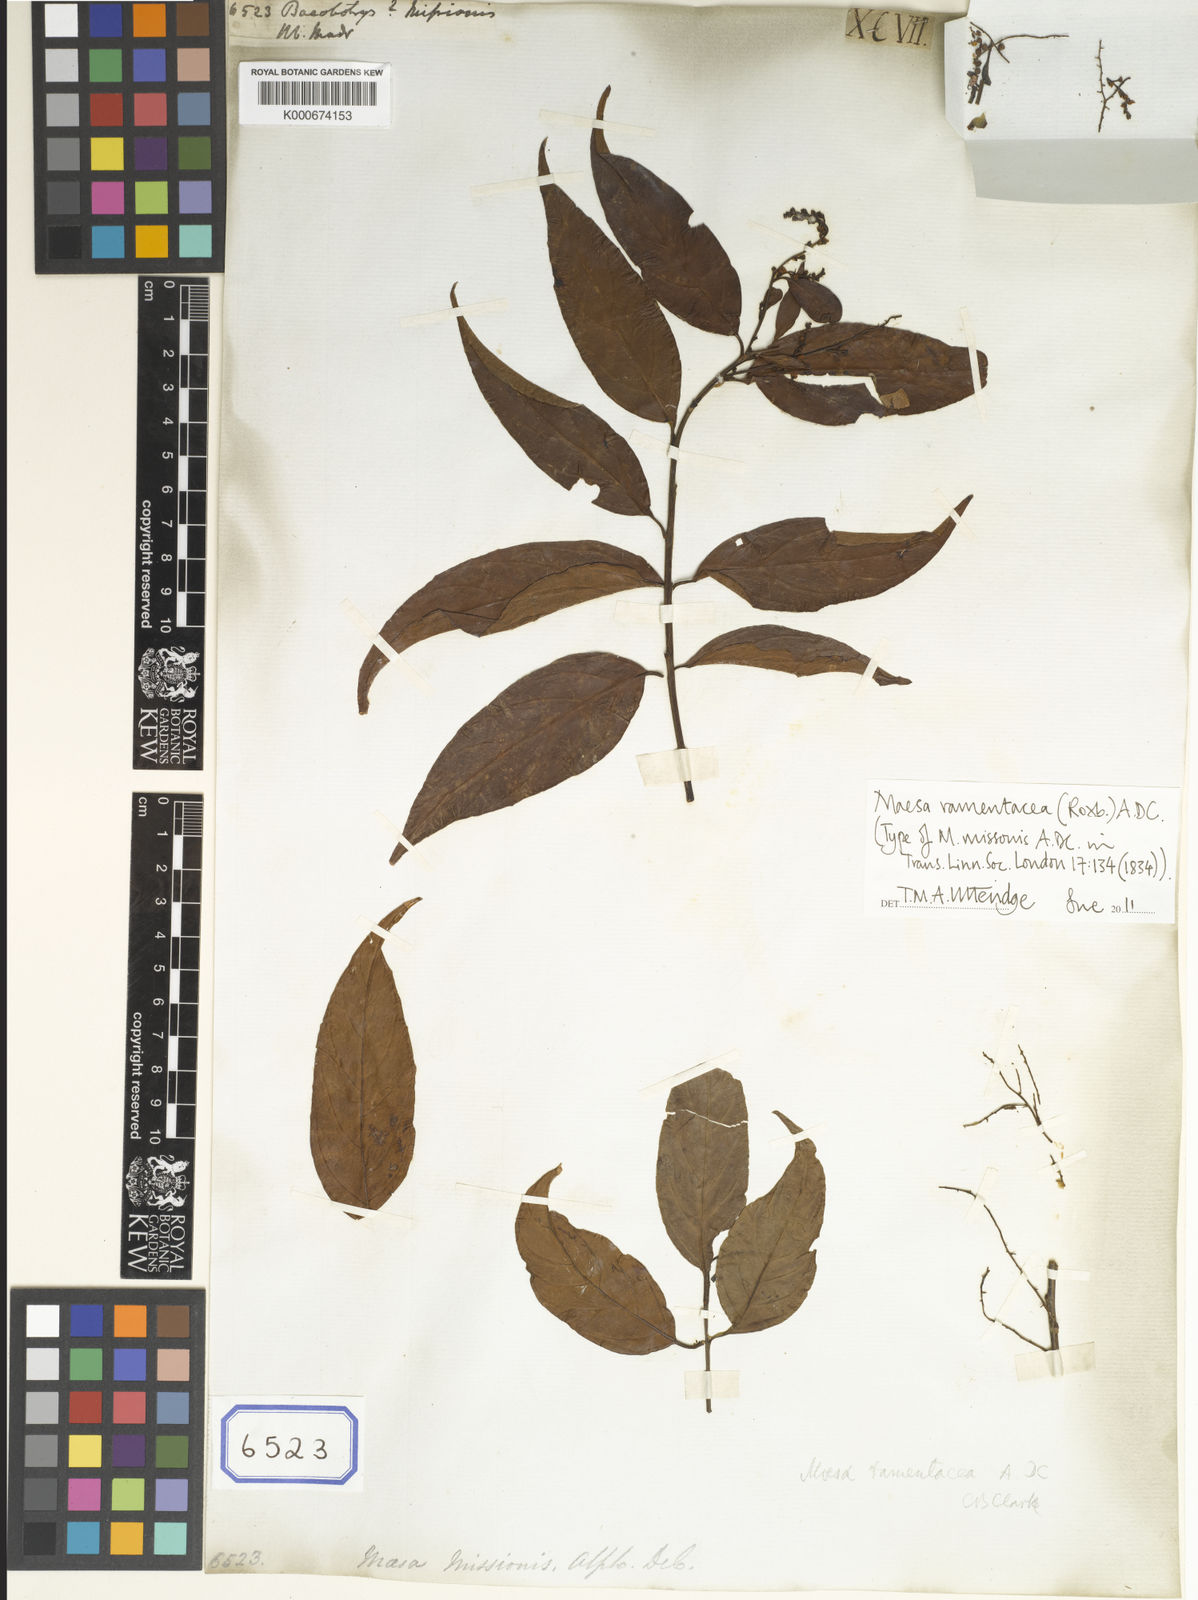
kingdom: Plantae
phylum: Tracheophyta
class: Magnoliopsida
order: Ericales
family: Primulaceae
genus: Maesa
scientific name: Maesa
